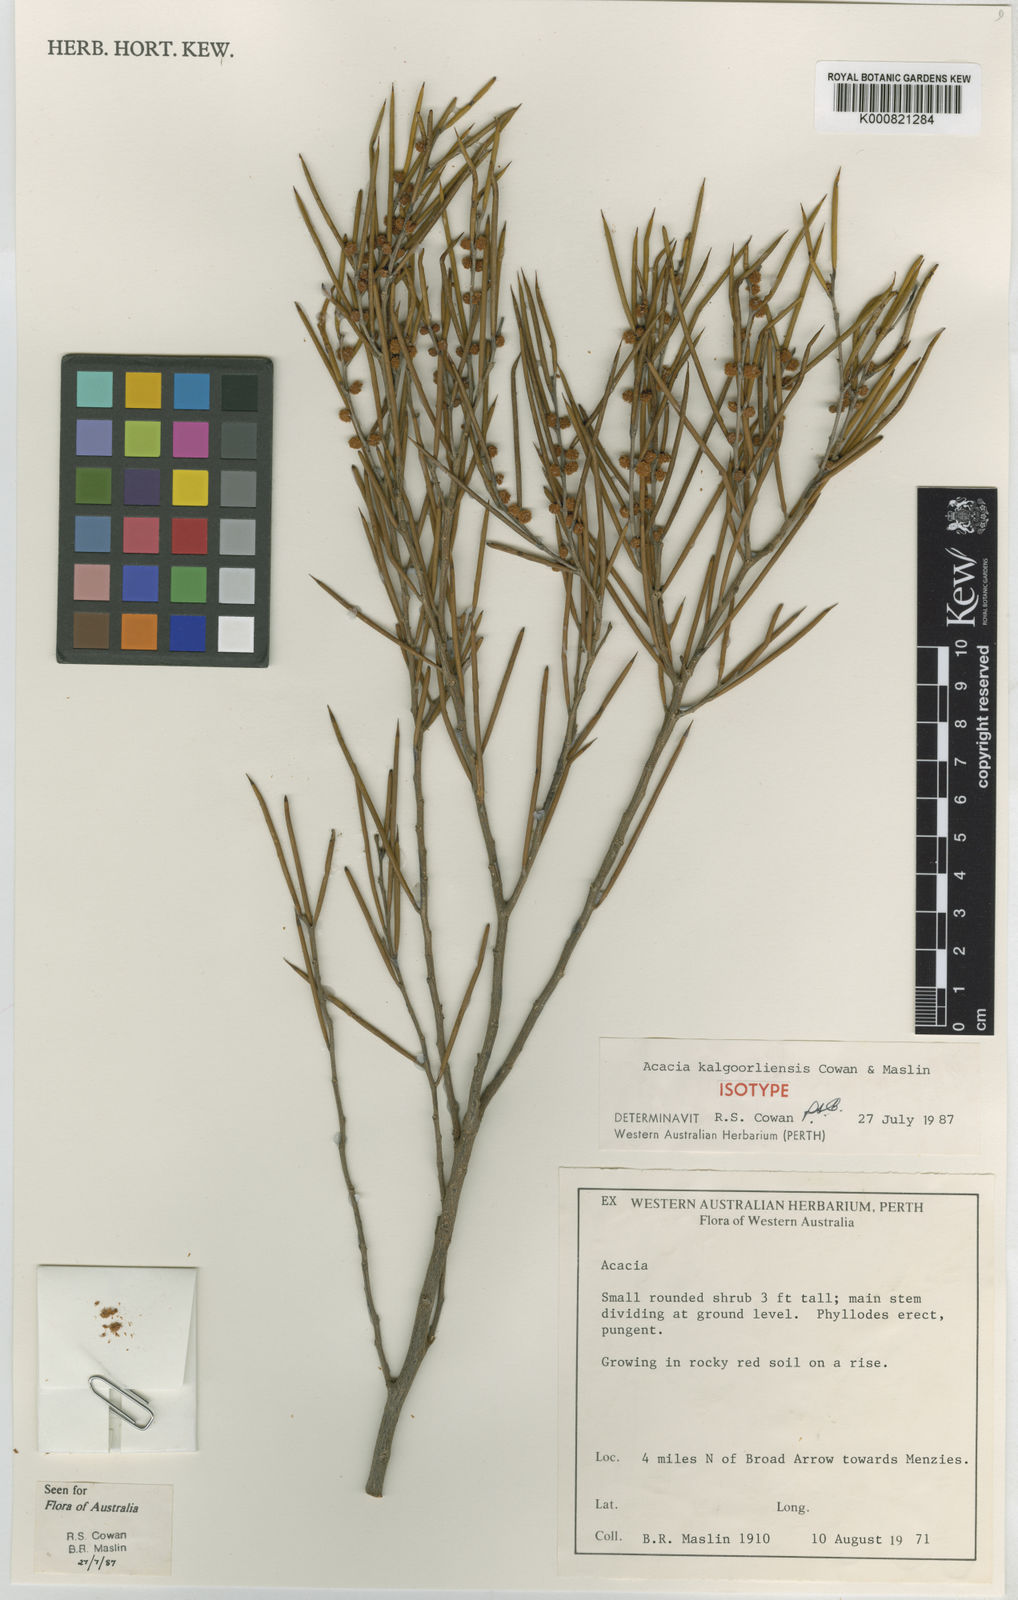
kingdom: Plantae
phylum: Tracheophyta
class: Magnoliopsida
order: Fabales
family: Fabaceae
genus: Acacia
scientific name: Acacia kalgoorliensis
